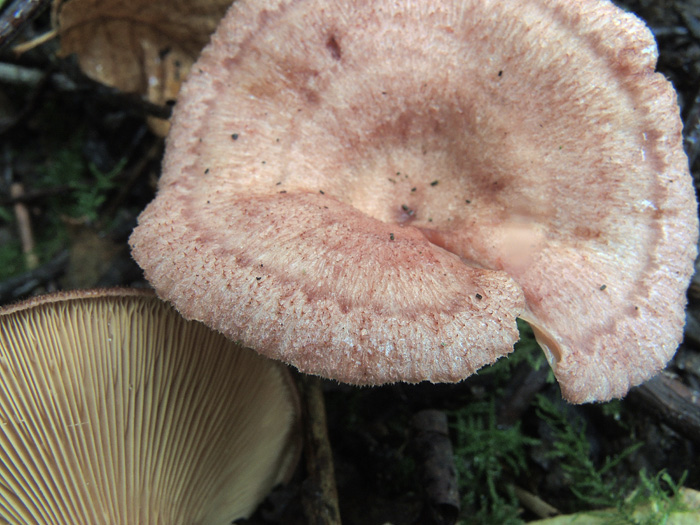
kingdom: Fungi
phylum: Basidiomycota
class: Agaricomycetes
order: Russulales
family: Russulaceae
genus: Lactarius
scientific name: Lactarius spinosulus
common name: småskællet mælkehat
